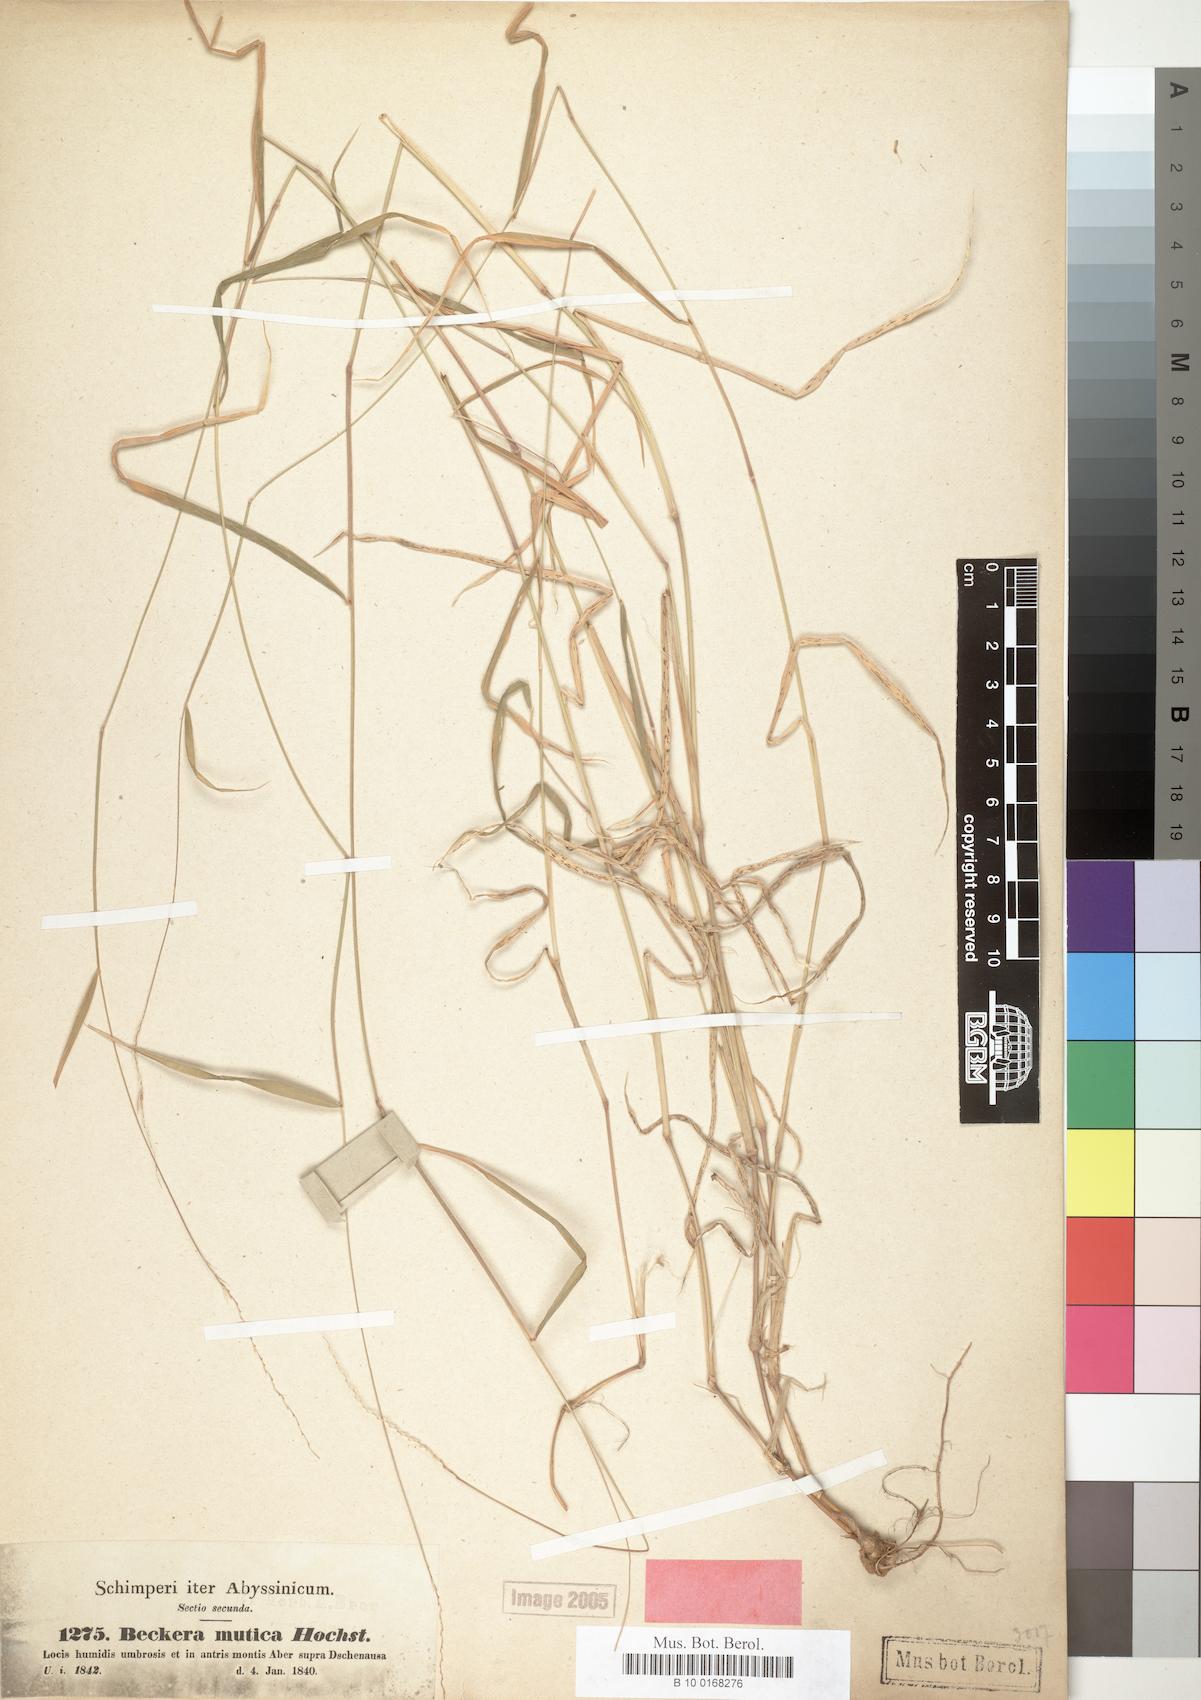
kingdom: Plantae
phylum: Tracheophyta
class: Liliopsida
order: Poales
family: Poaceae
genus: Snowdenia
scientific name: Snowdenia mutica
